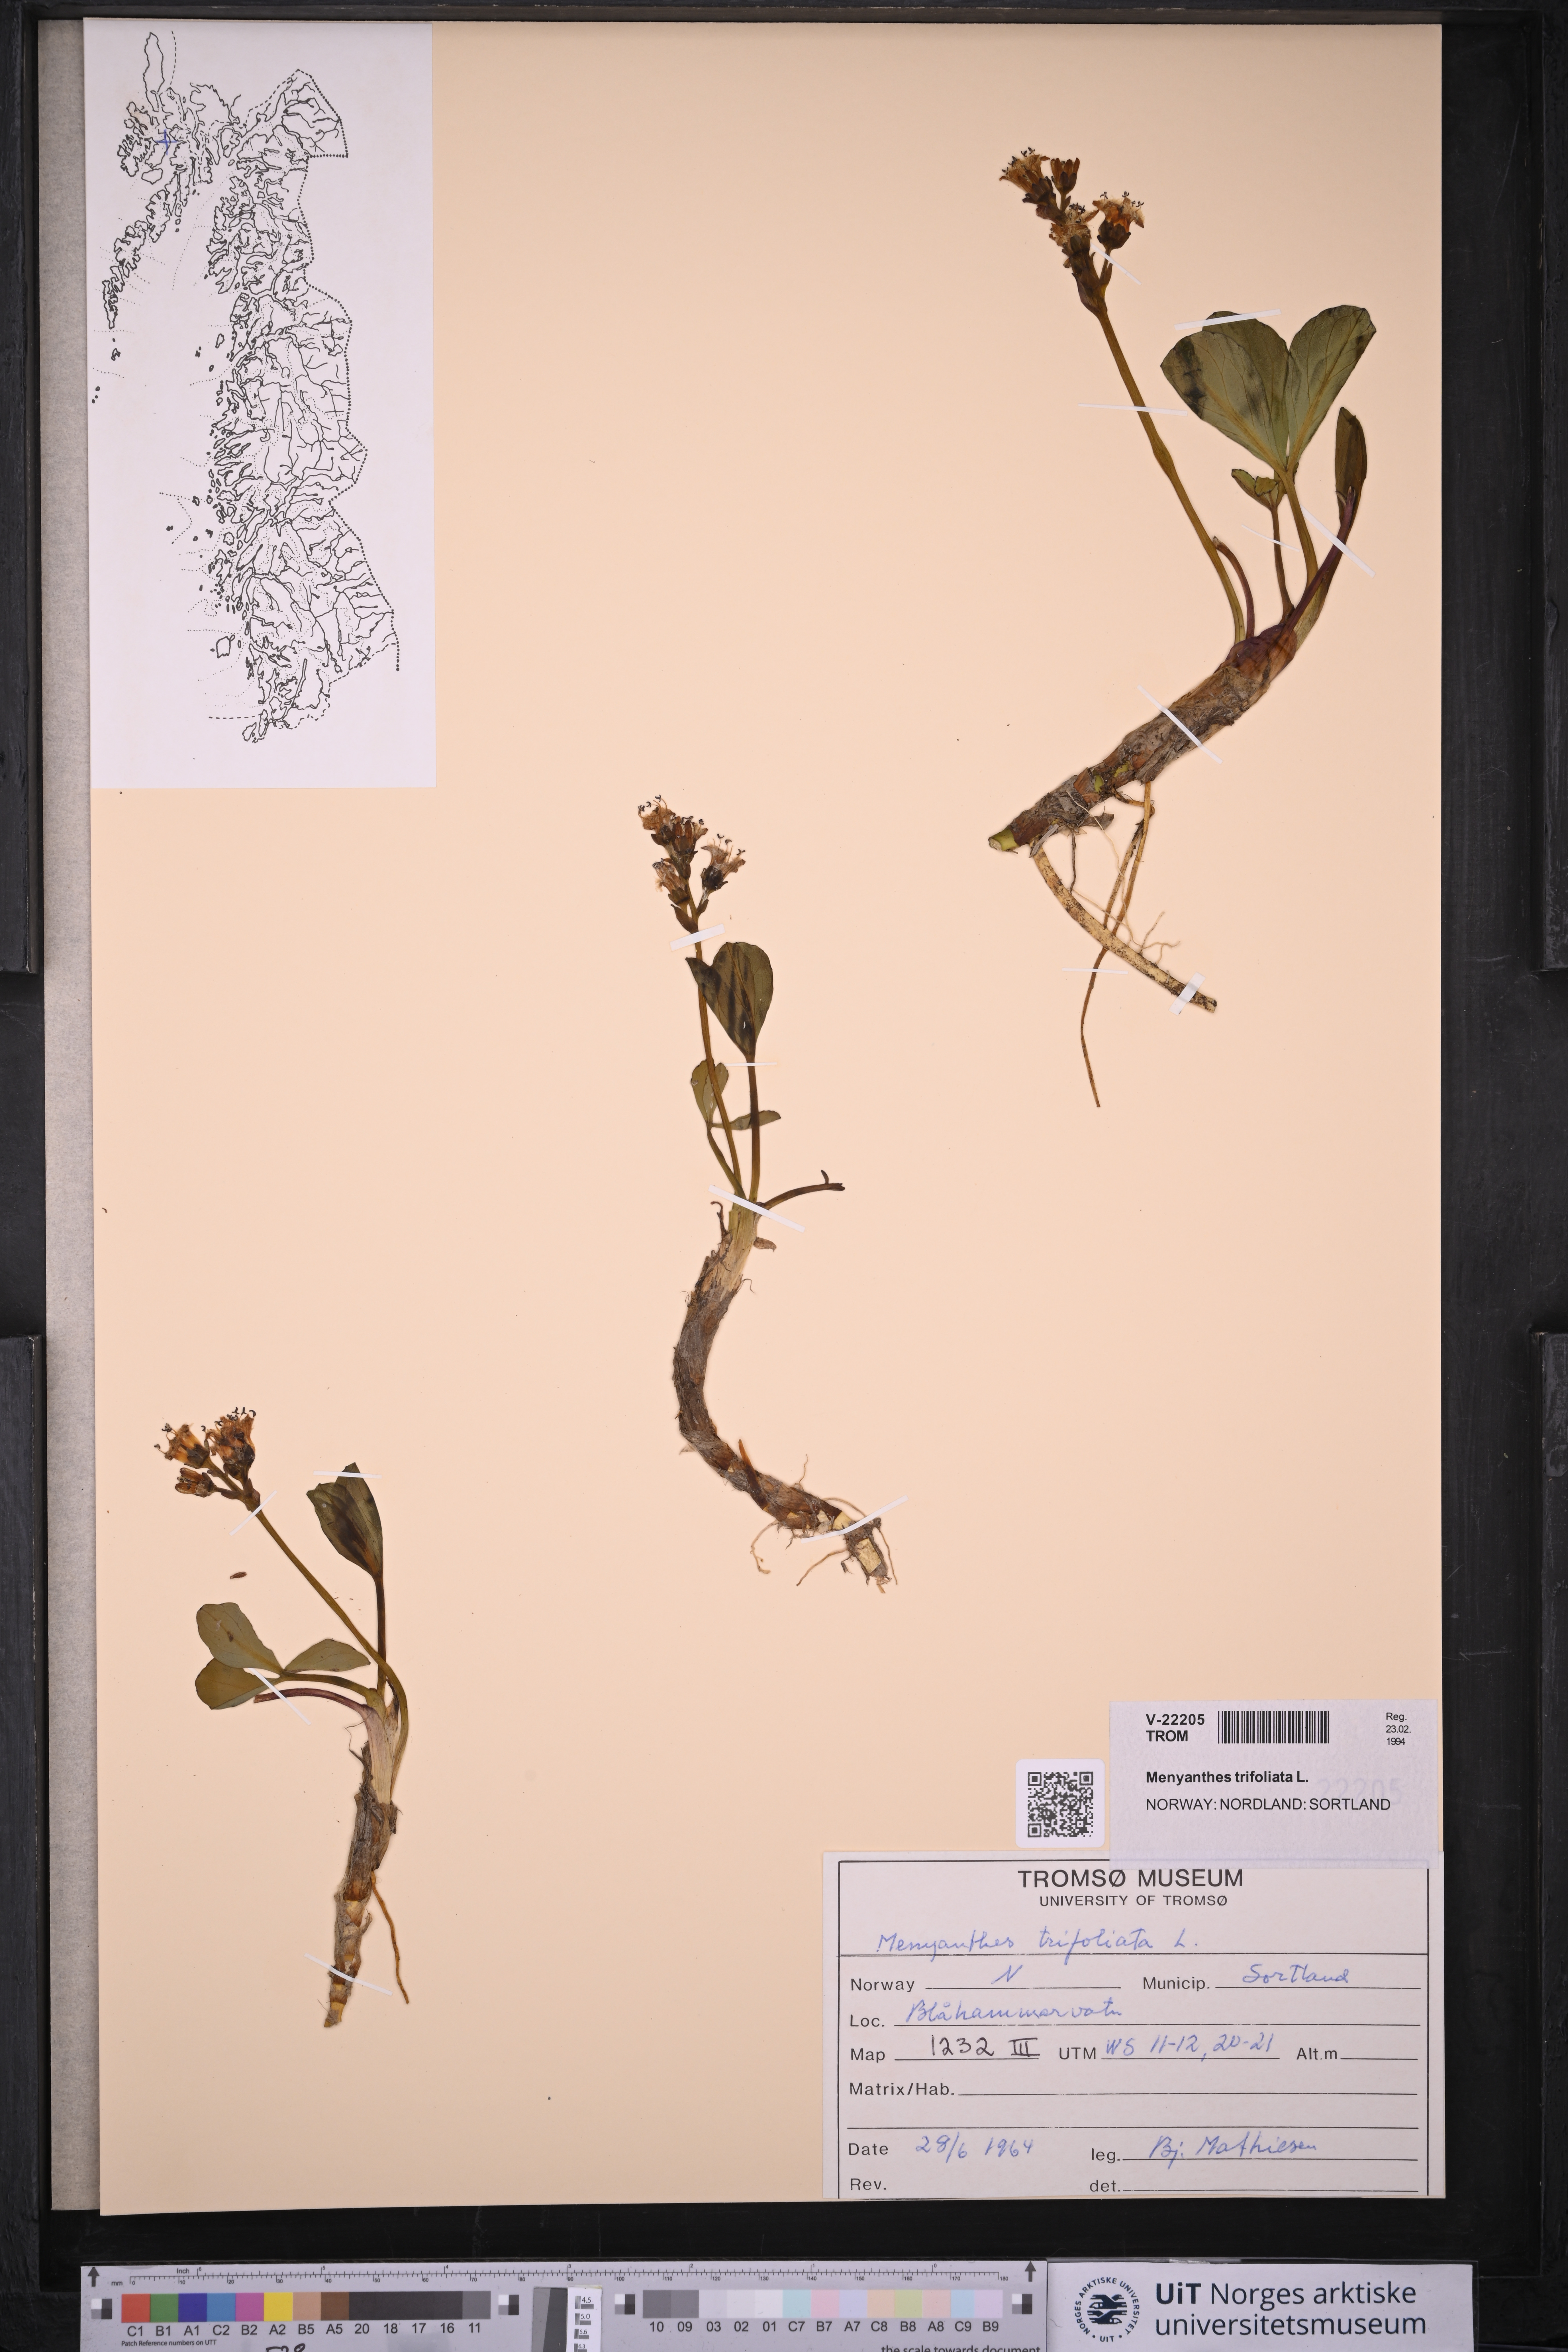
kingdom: Plantae
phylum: Tracheophyta
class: Magnoliopsida
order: Asterales
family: Menyanthaceae
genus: Menyanthes
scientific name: Menyanthes trifoliata
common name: Bogbean
